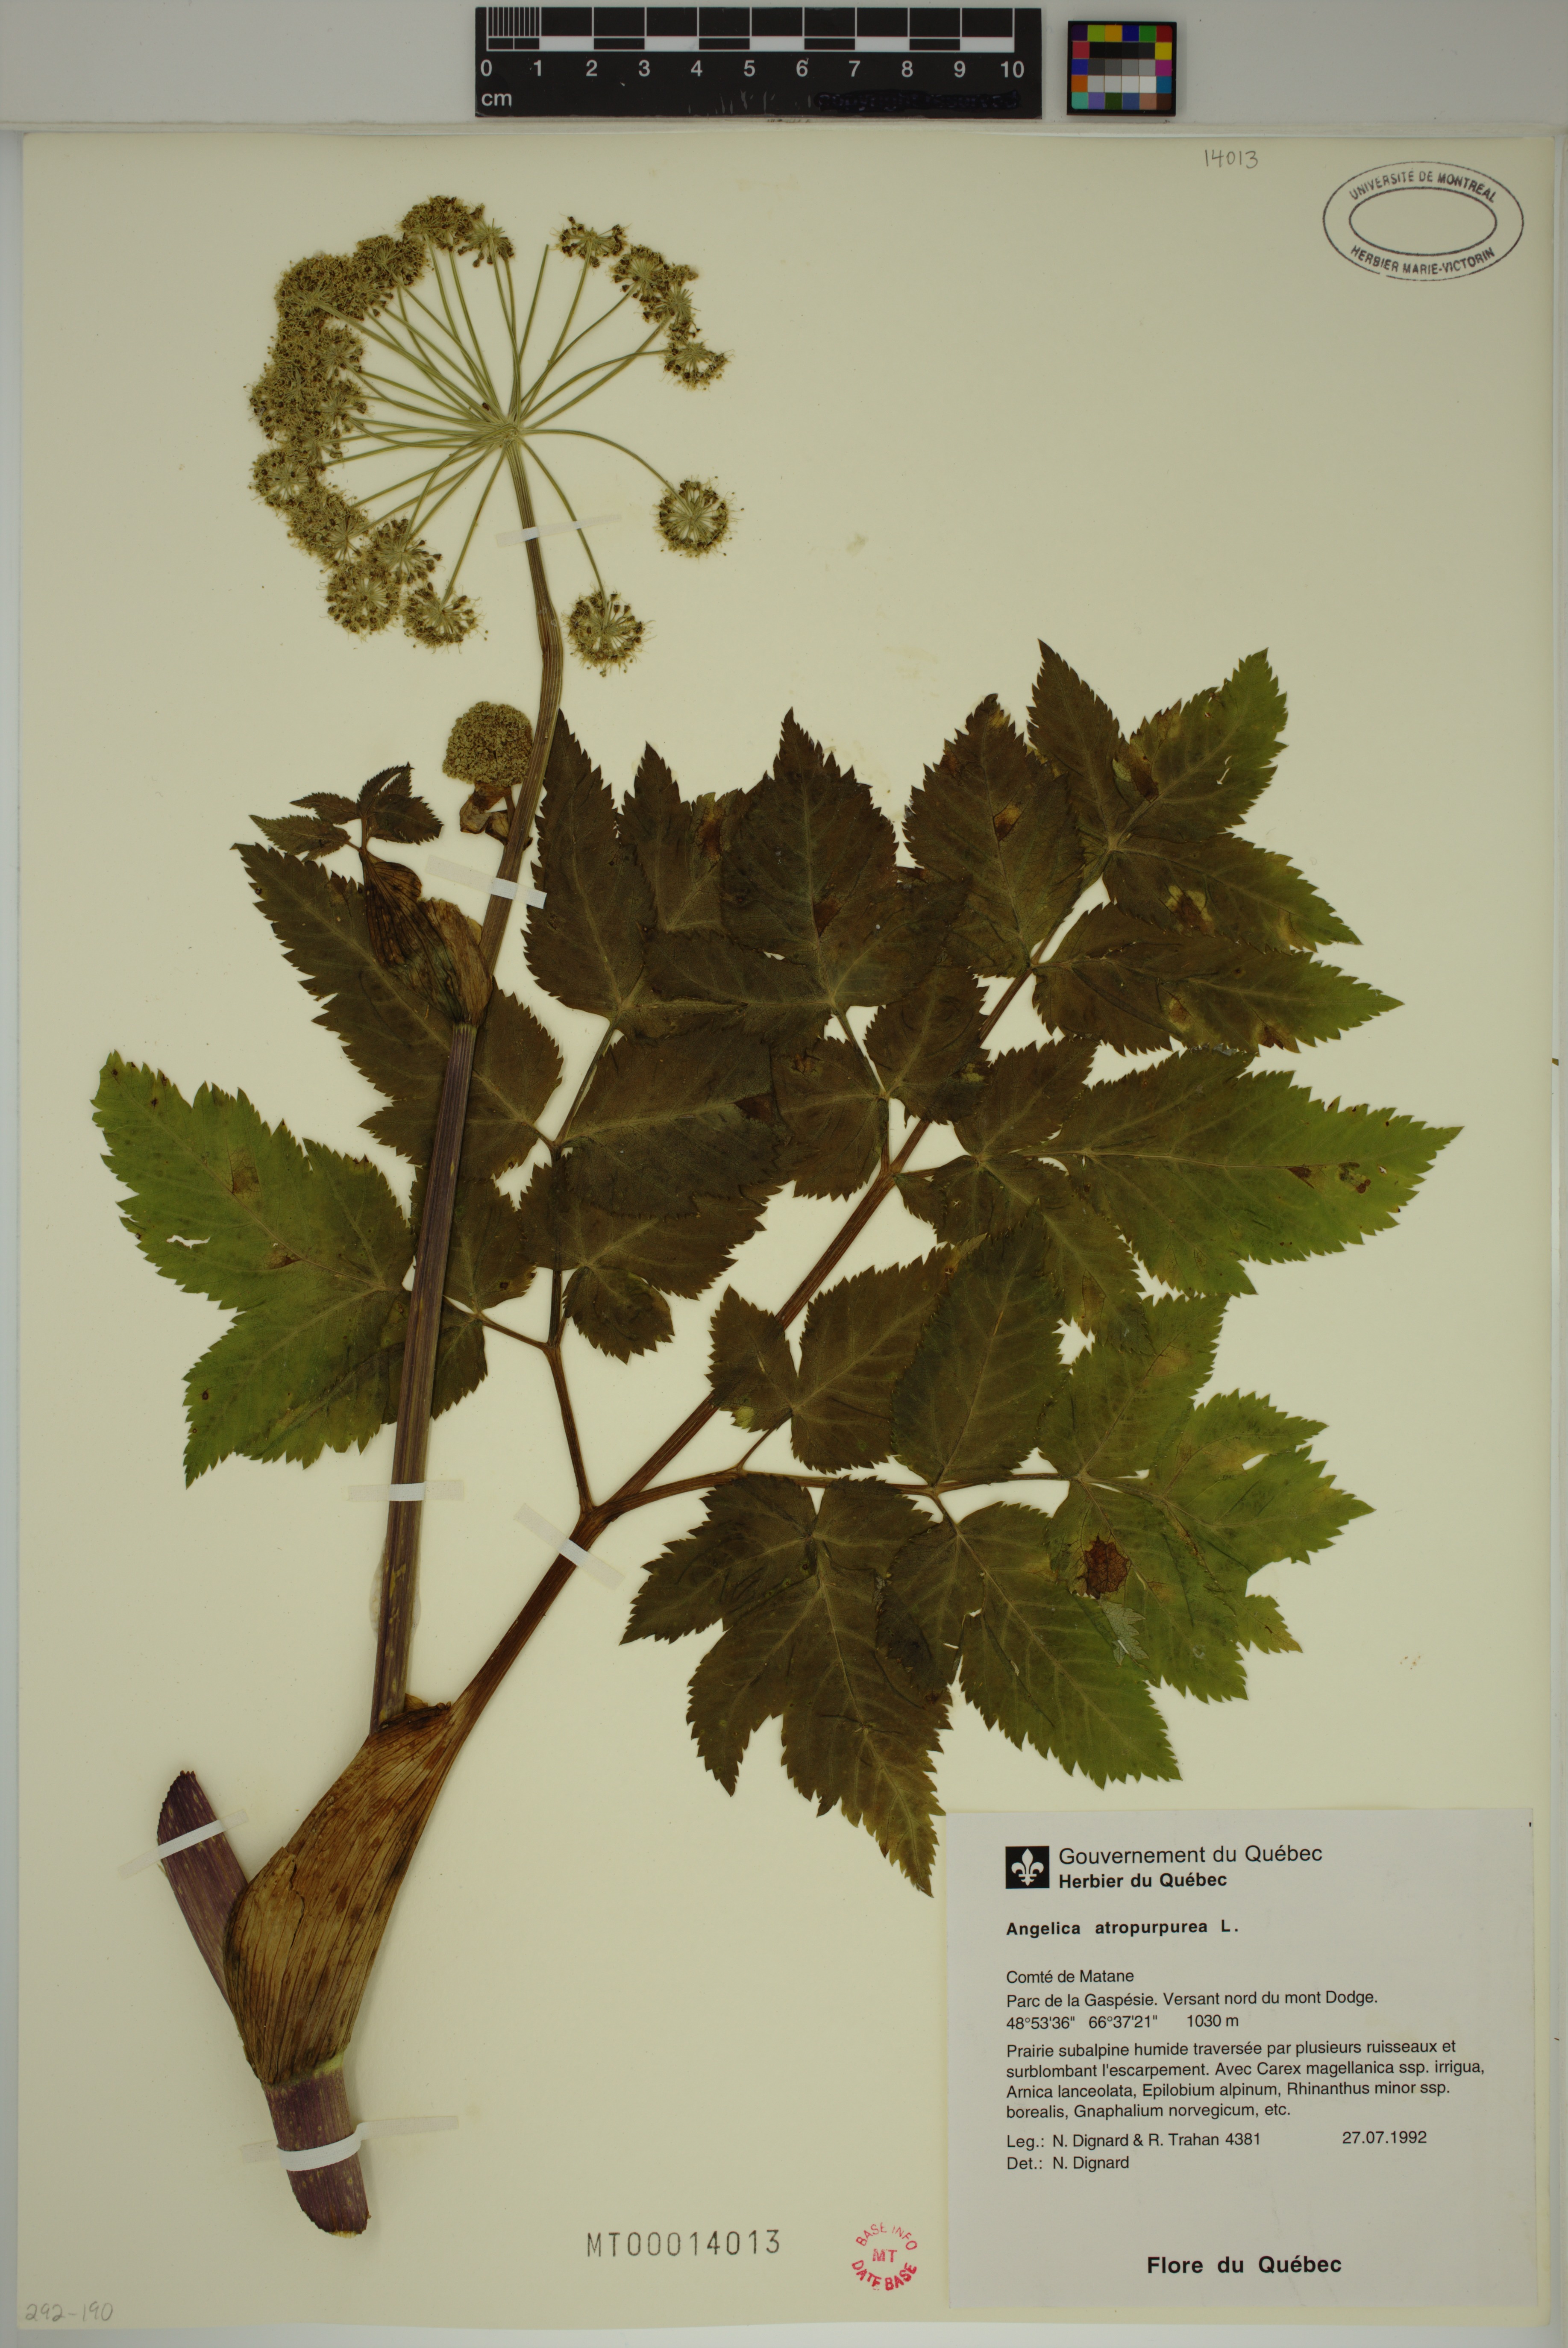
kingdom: Plantae
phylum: Tracheophyta
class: Magnoliopsida
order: Apiales
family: Apiaceae
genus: Angelica
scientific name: Angelica atropurpurea
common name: Great angelica
